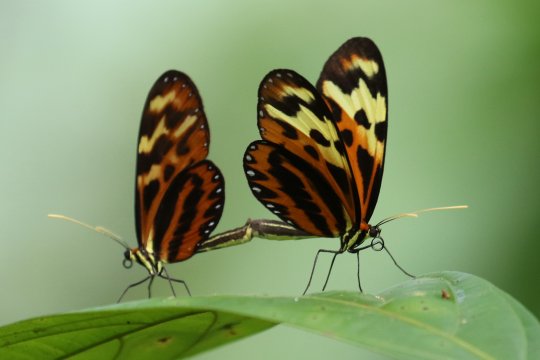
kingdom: Animalia
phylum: Arthropoda
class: Insecta
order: Lepidoptera
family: Nymphalidae
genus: Mechanitis
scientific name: Mechanitis menapis
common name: Menapis Tigerwing
